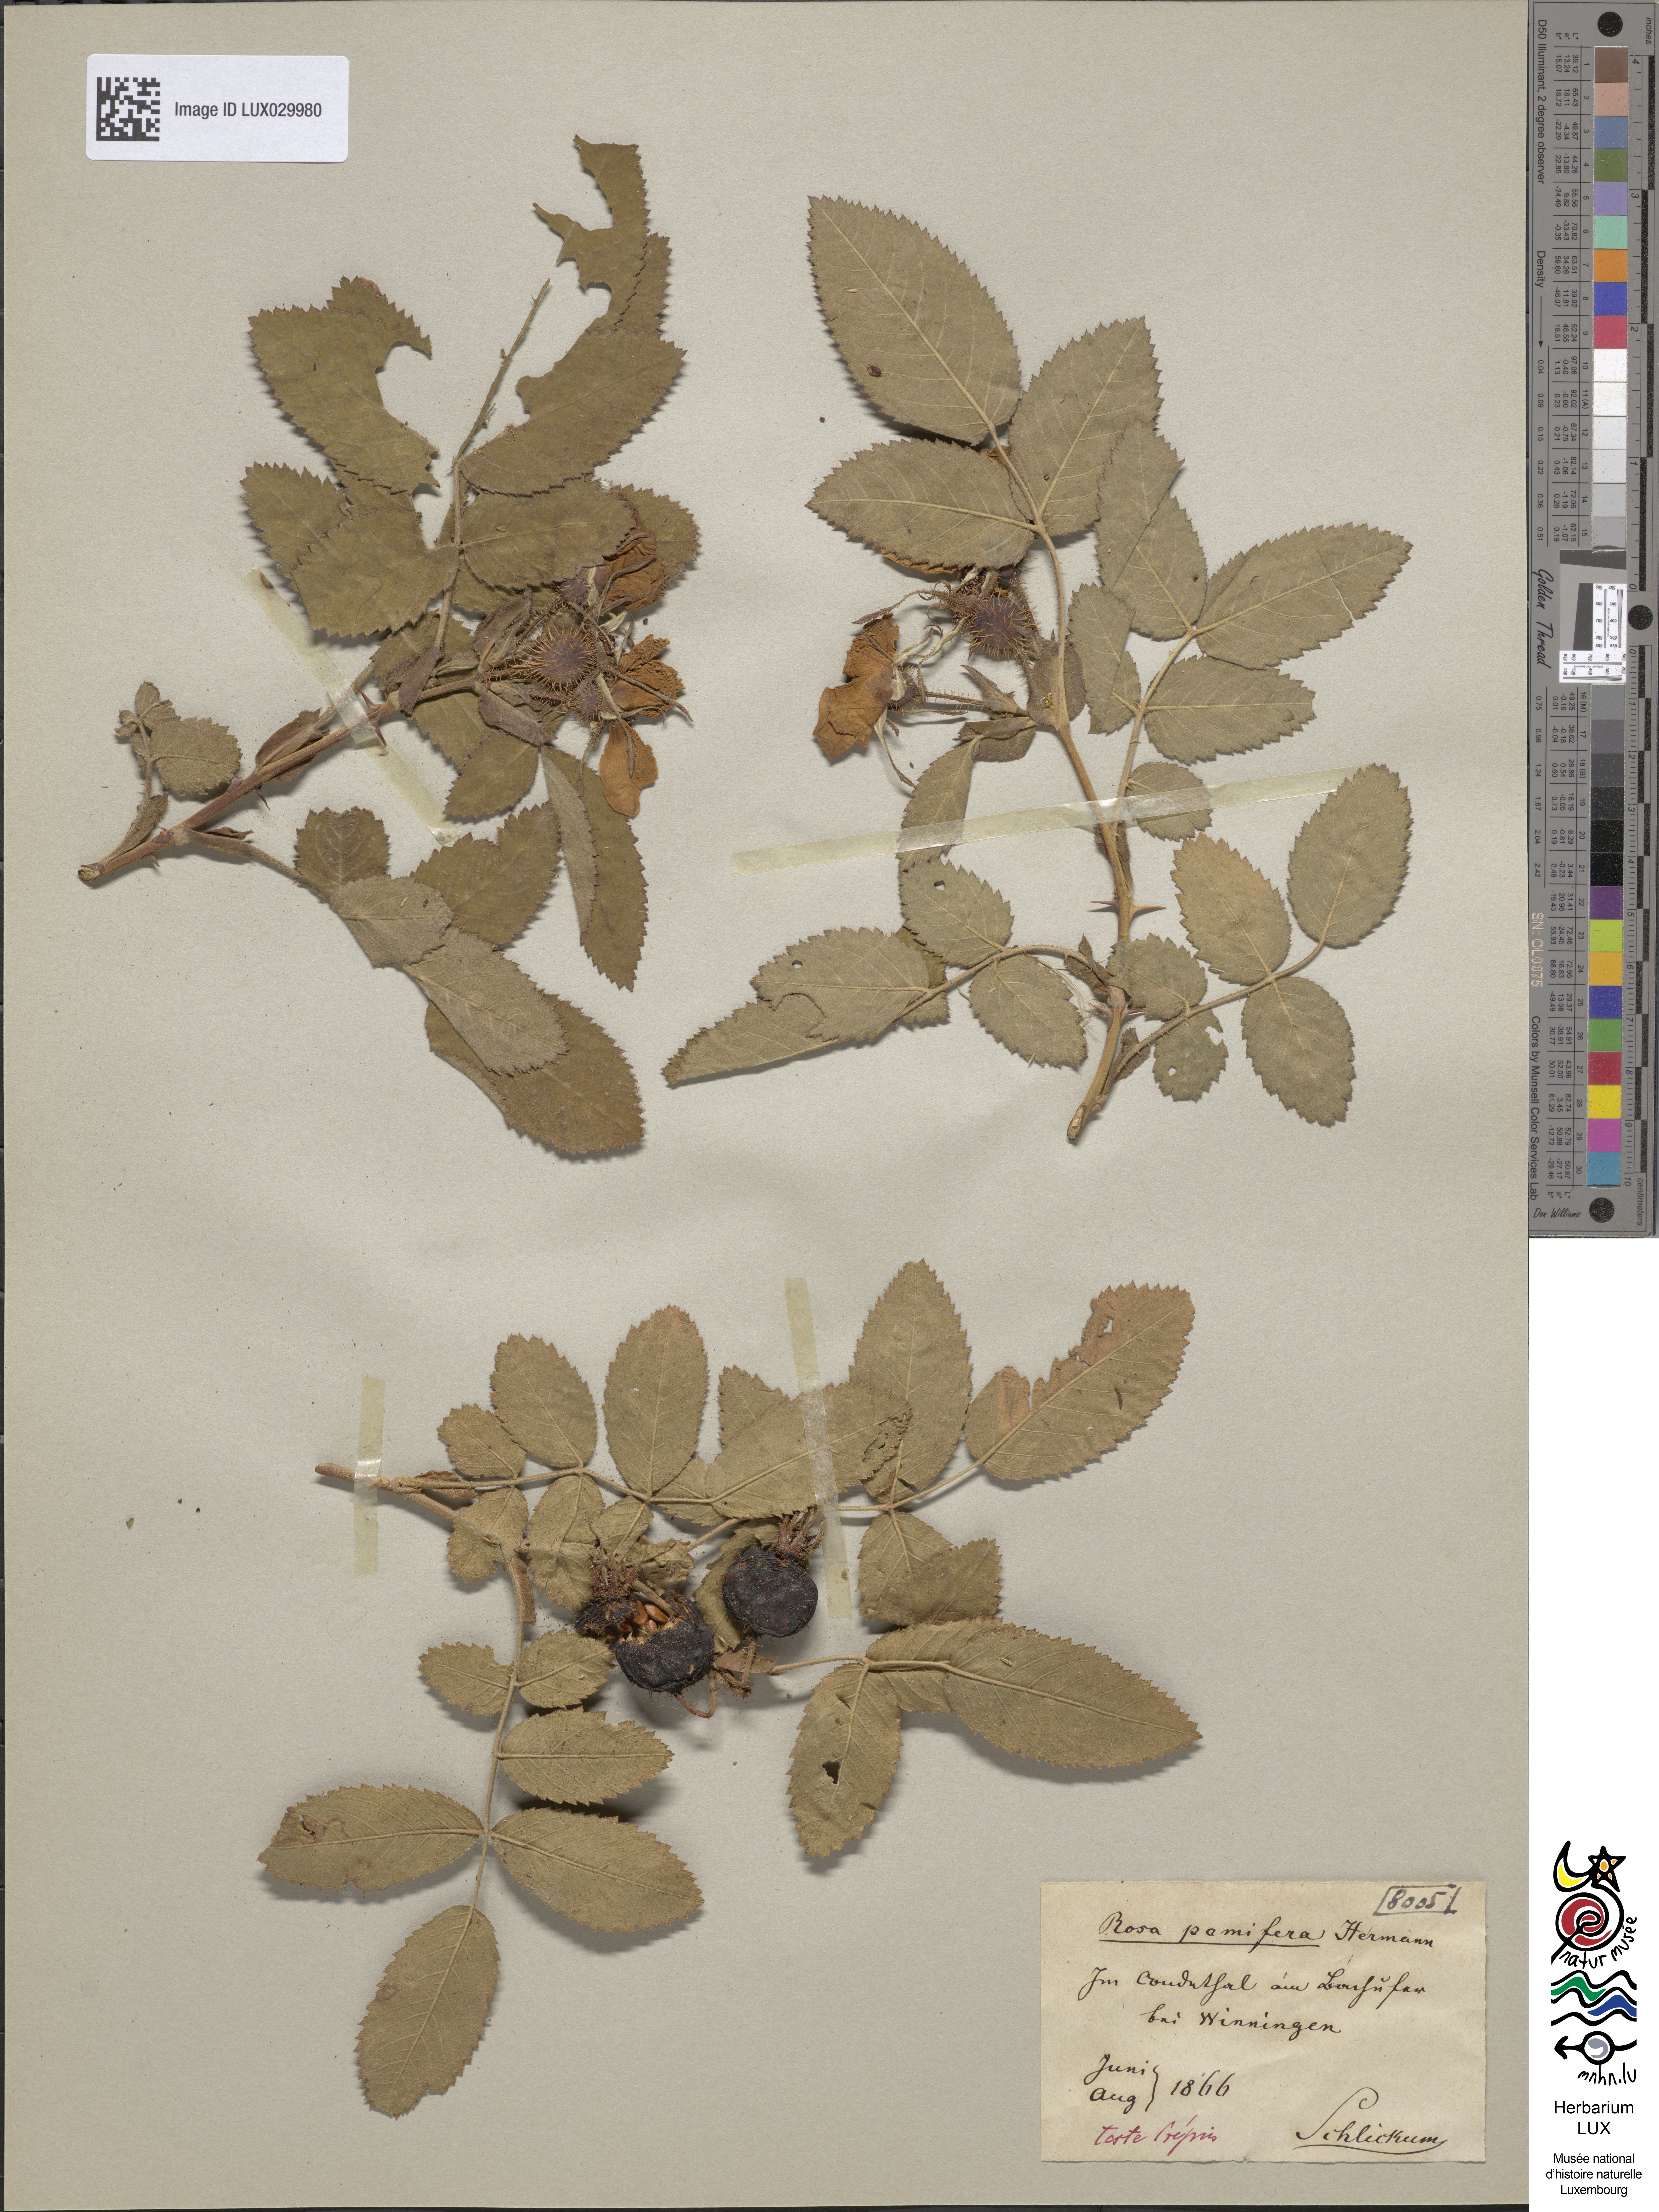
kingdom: Plantae
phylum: Tracheophyta
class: Magnoliopsida
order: Rosales
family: Rosaceae
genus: Rosa
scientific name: Rosa villosa
